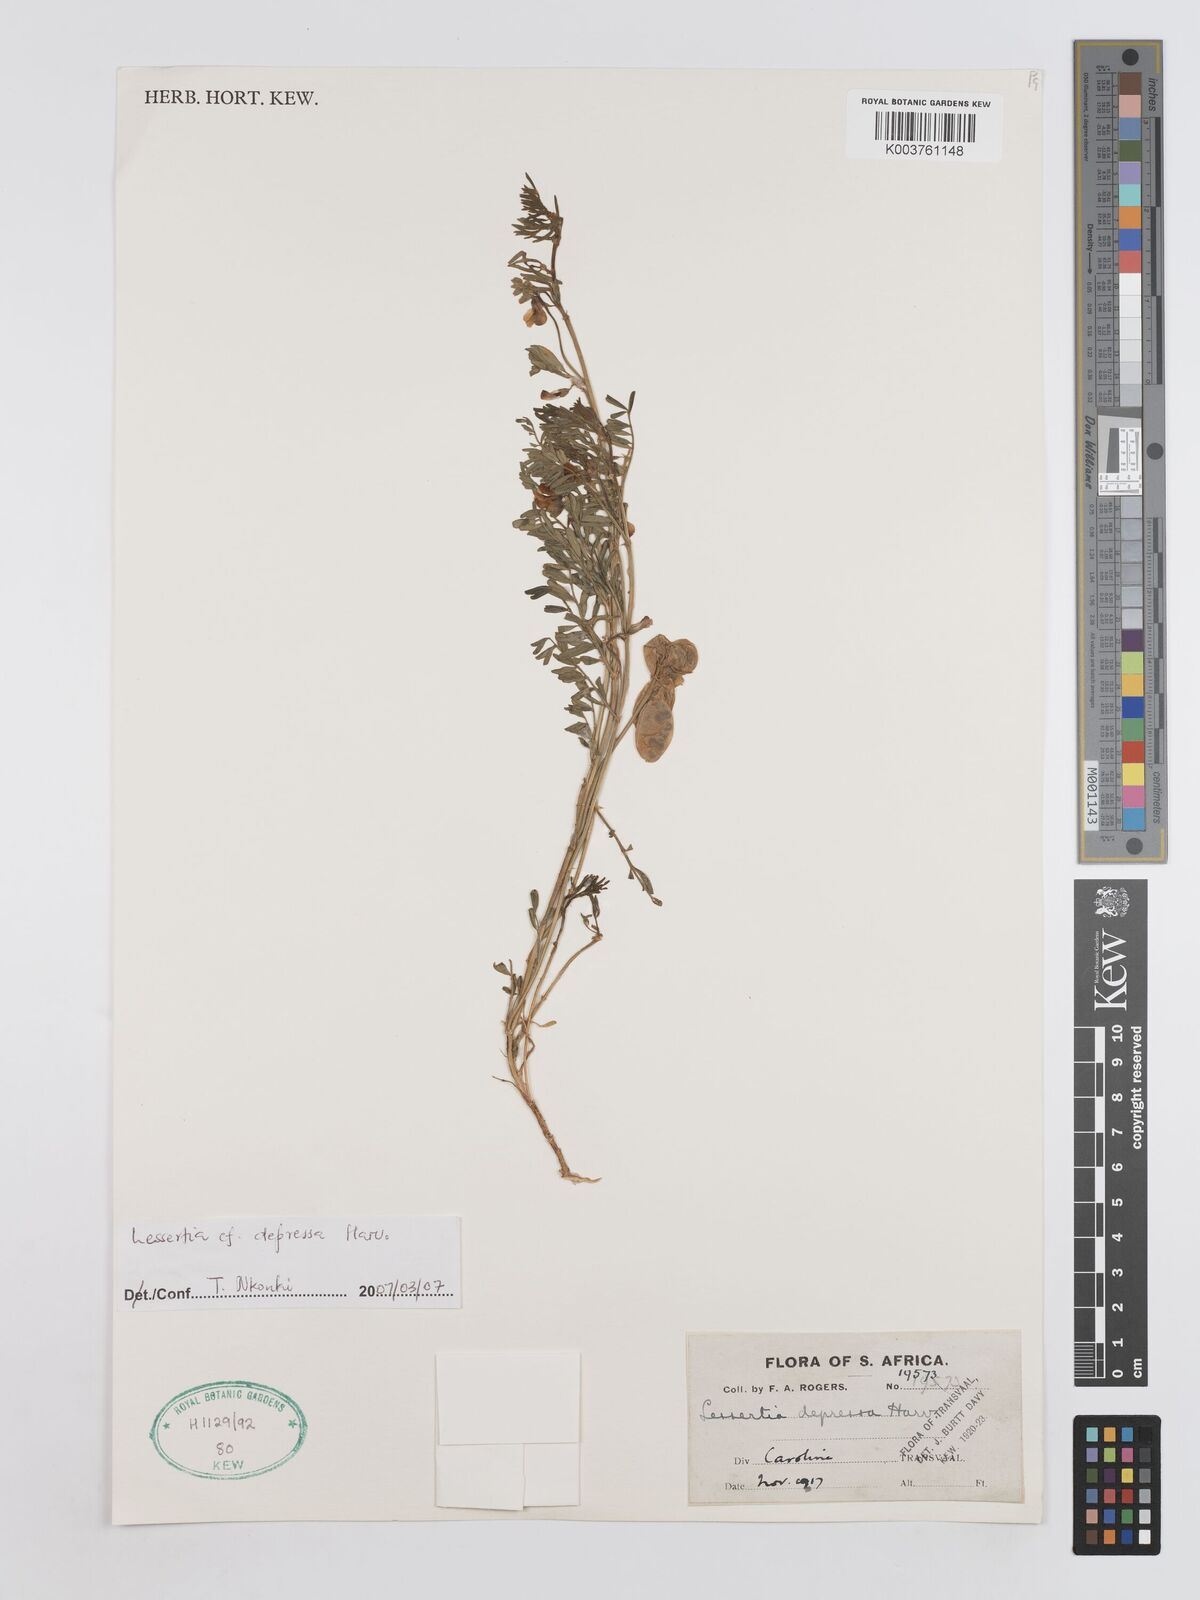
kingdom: Plantae
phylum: Tracheophyta
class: Magnoliopsida
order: Fabales
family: Fabaceae
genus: Lessertia
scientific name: Lessertia depressa
